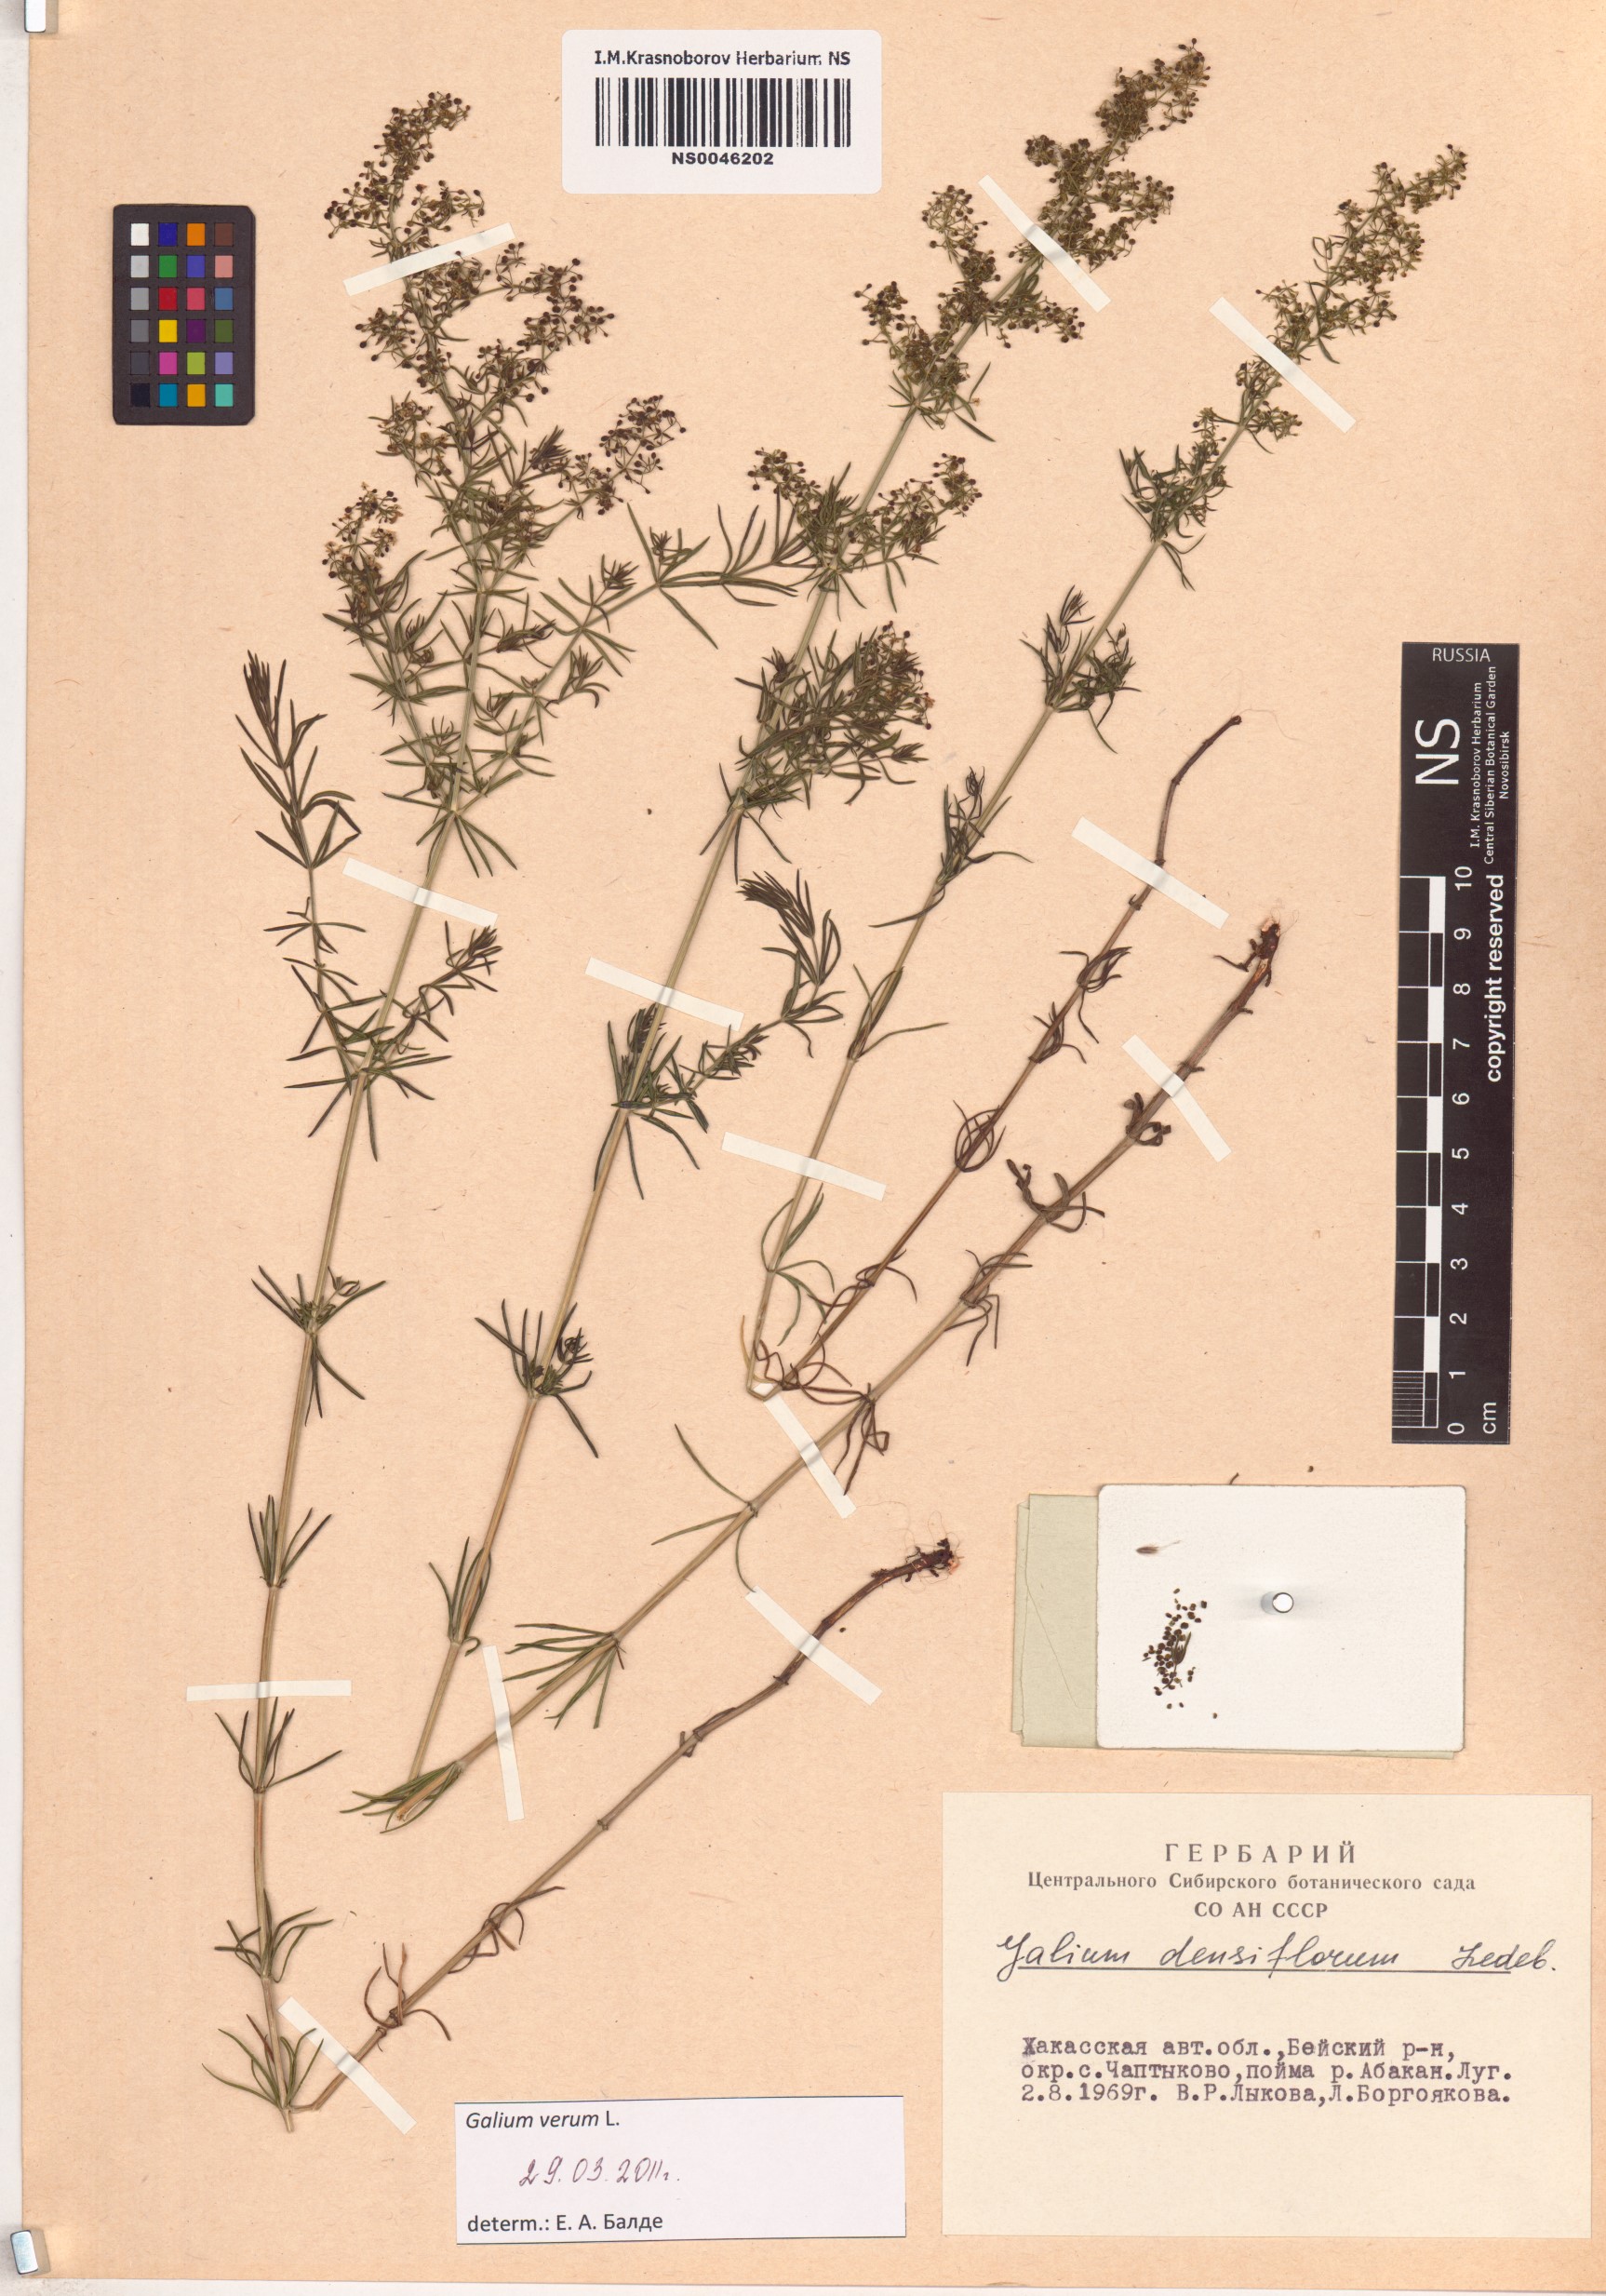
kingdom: Plantae
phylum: Tracheophyta
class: Magnoliopsida
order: Gentianales
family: Rubiaceae
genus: Galium
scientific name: Galium verum
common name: Lady's bedstraw
